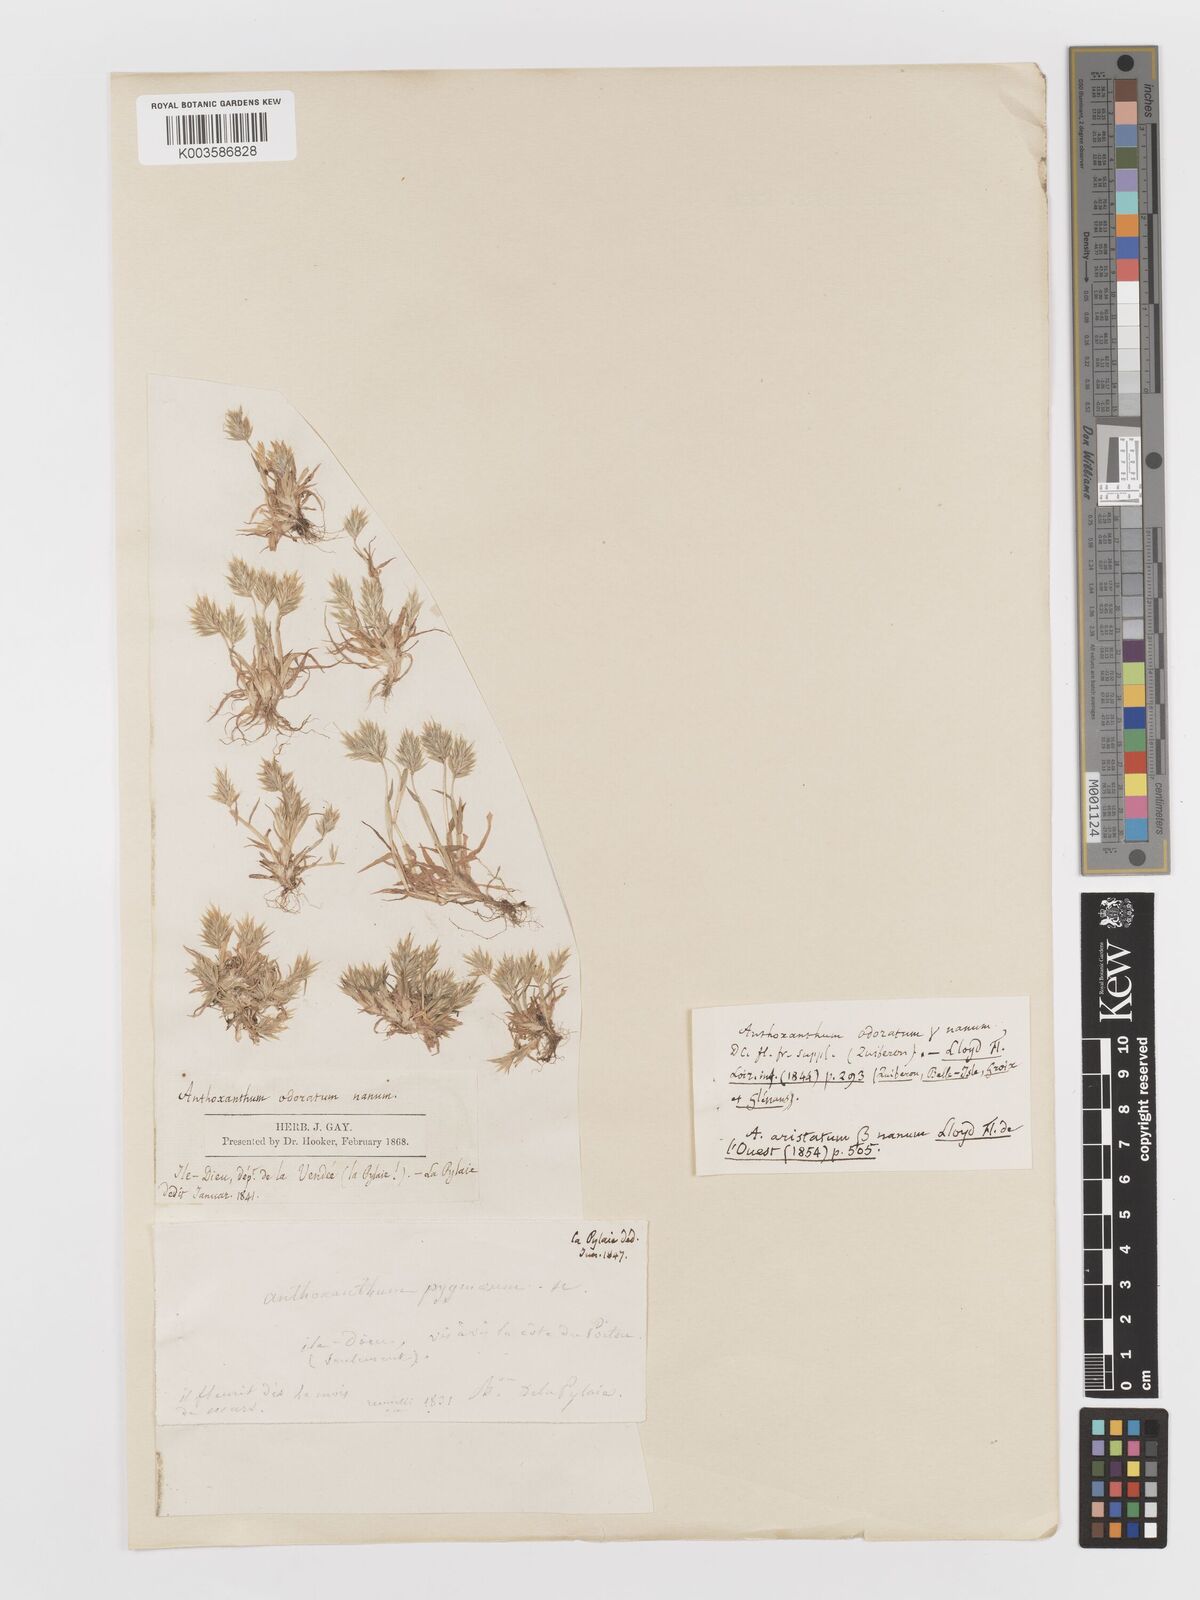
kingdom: Plantae
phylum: Tracheophyta
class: Liliopsida
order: Poales
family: Poaceae
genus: Anthoxanthum
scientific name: Anthoxanthum
